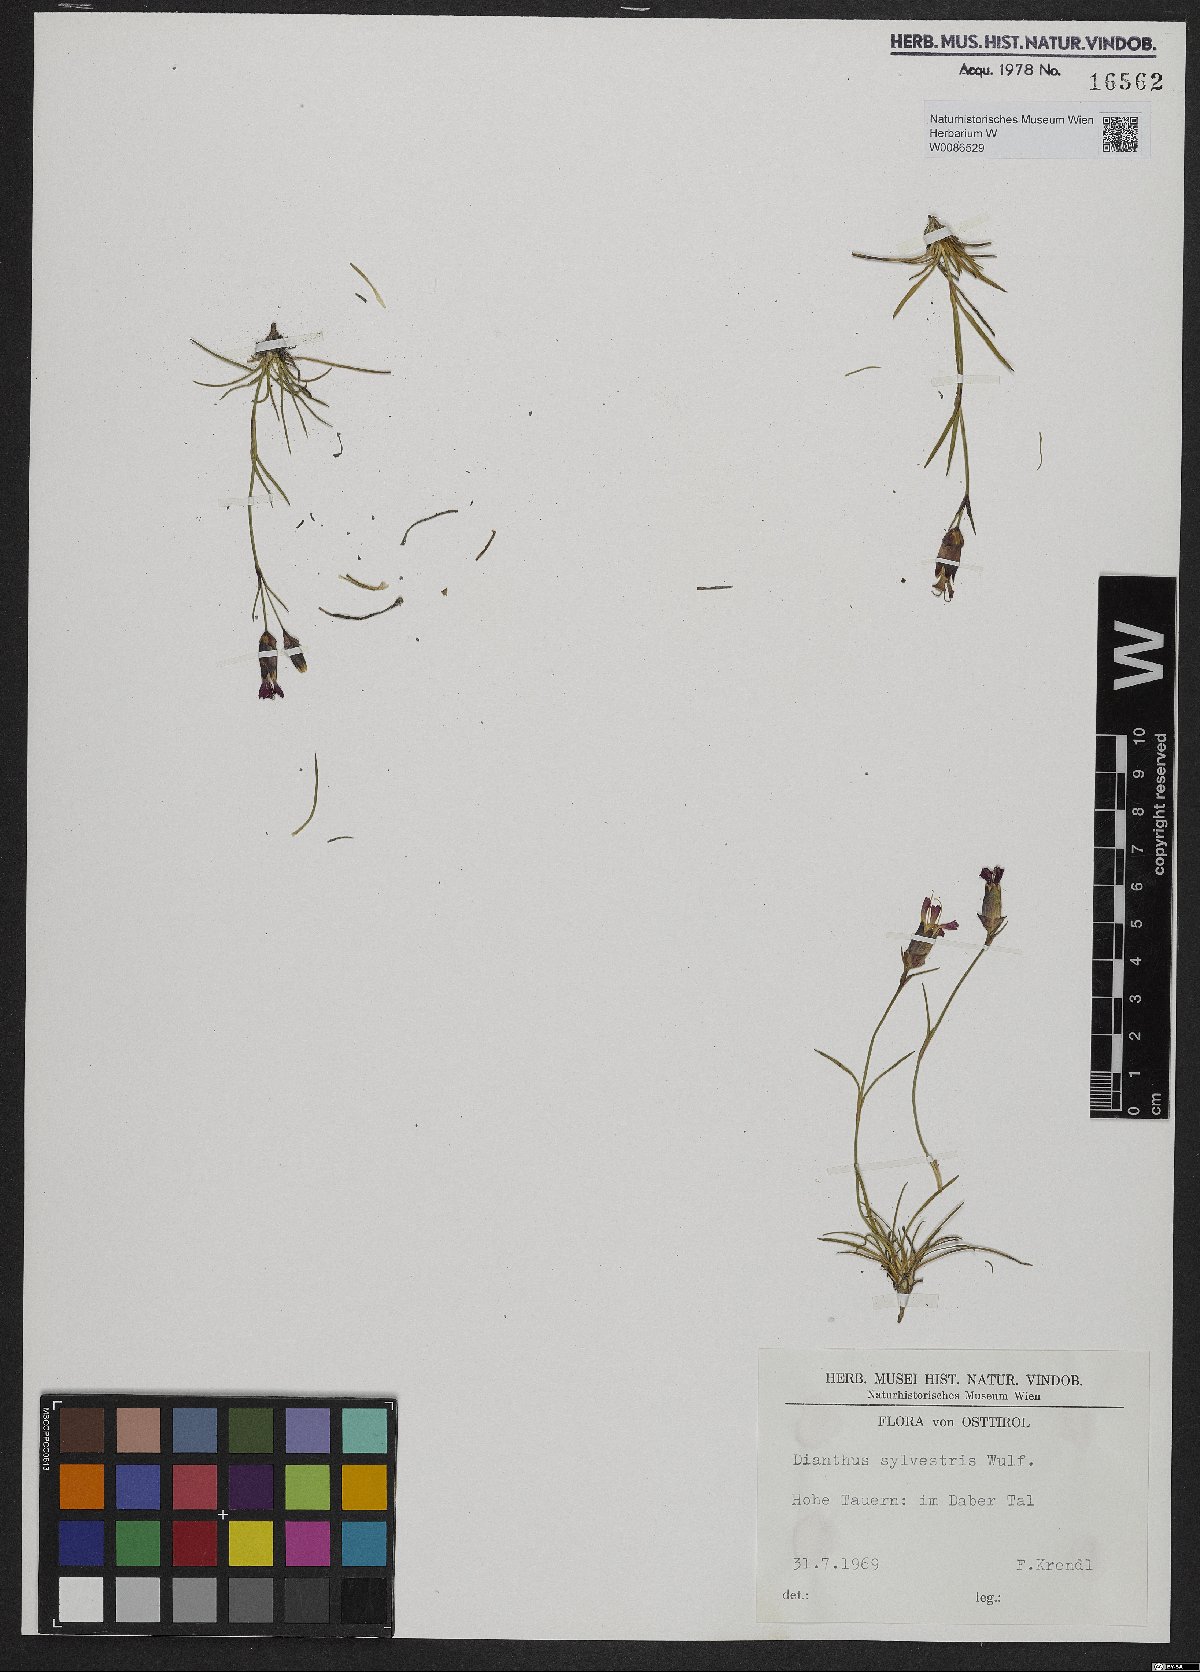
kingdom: Plantae
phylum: Tracheophyta
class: Magnoliopsida
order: Caryophyllales
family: Caryophyllaceae
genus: Dianthus
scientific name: Dianthus sylvestris
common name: Wood pink
